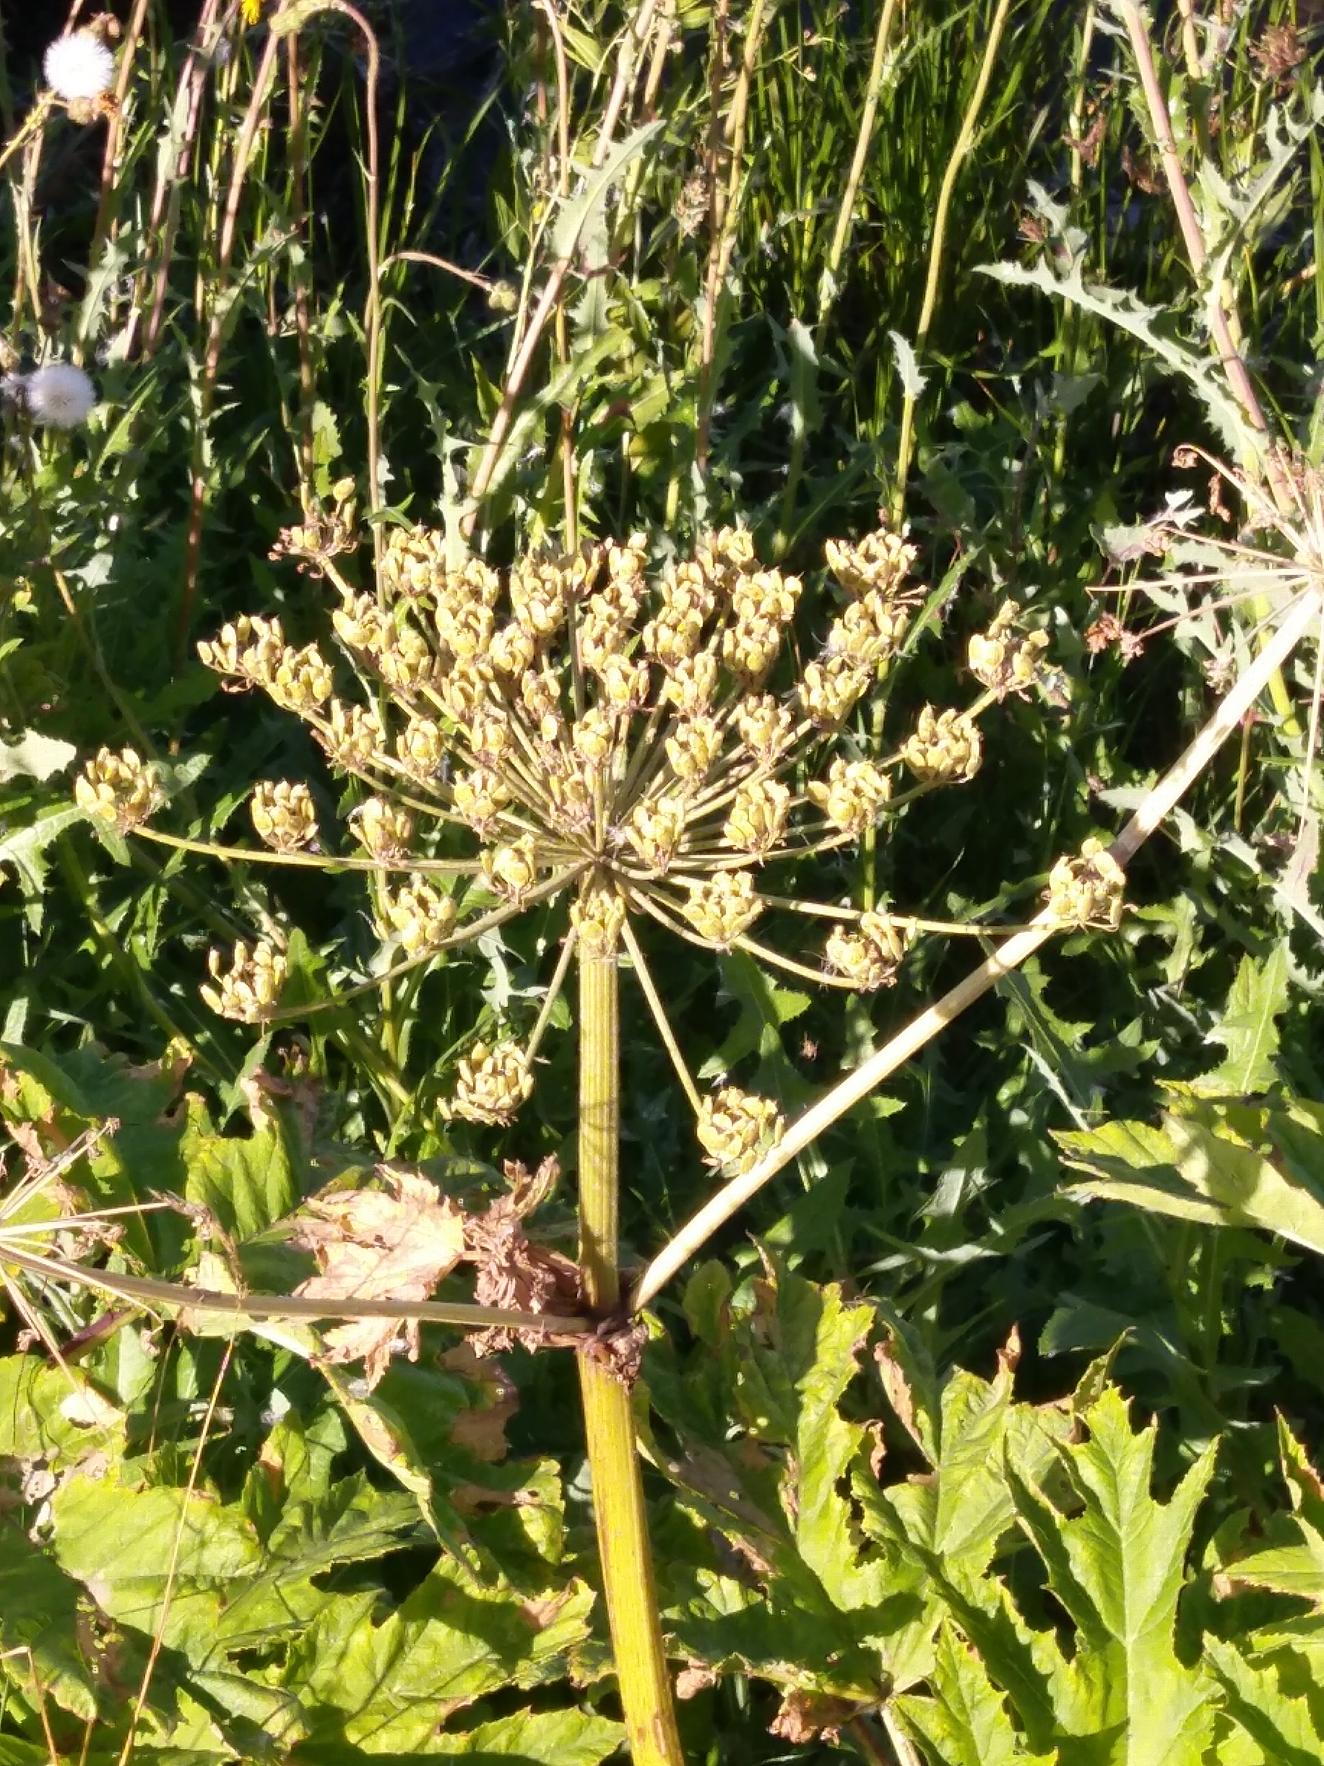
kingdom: Plantae
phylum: Tracheophyta
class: Magnoliopsida
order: Apiales
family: Apiaceae
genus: Heracleum
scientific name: Heracleum mantegazzianum
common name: Kæmpe-bjørneklo
